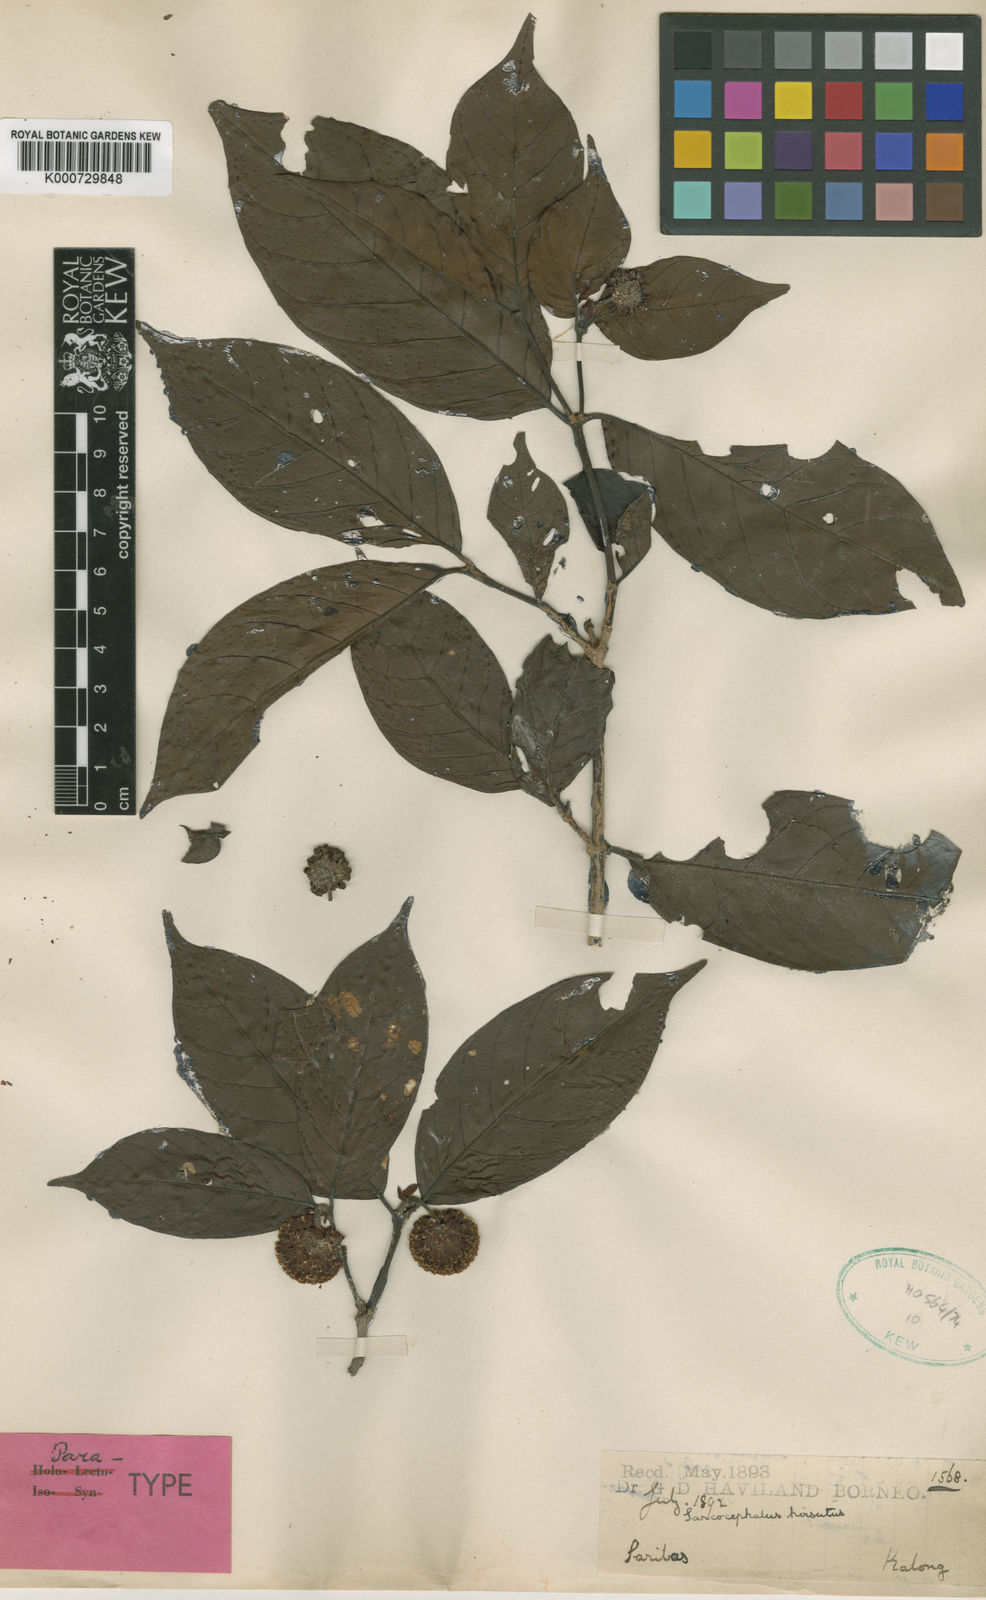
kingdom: Plantae
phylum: Tracheophyta
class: Magnoliopsida
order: Gentianales
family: Rubiaceae
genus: Nauclea
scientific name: Nauclea officinalis
